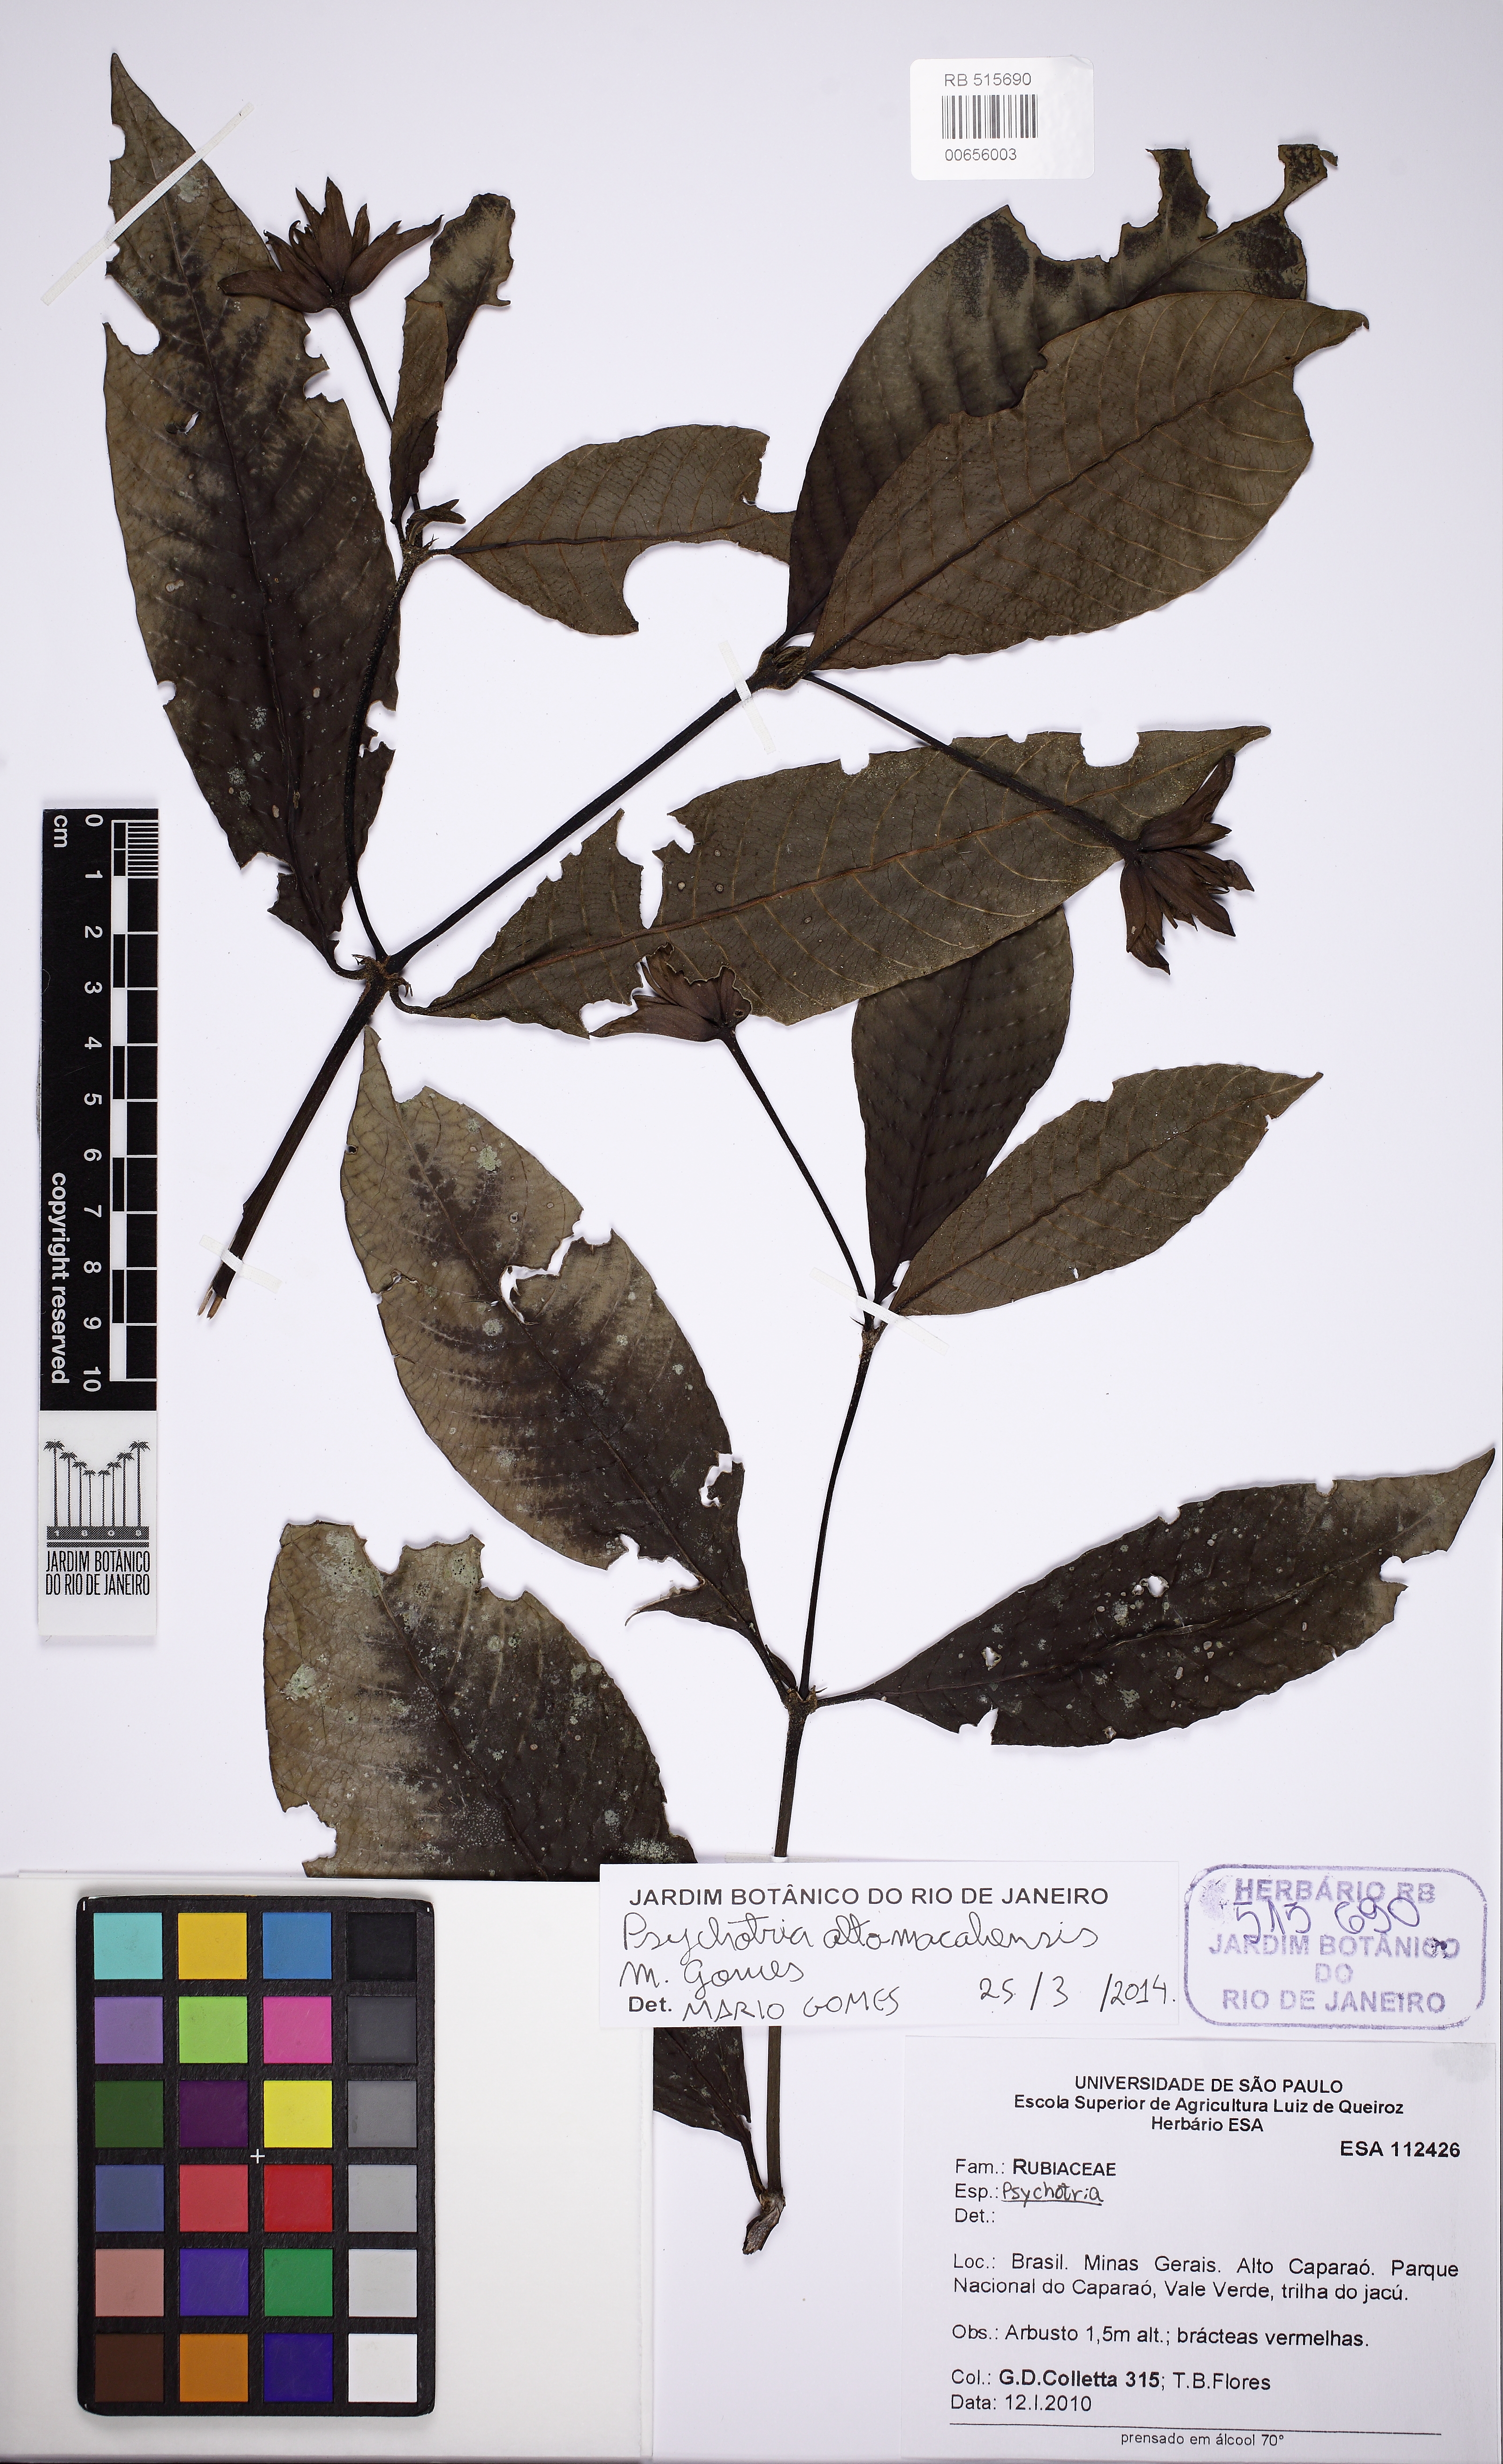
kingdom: Plantae
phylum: Tracheophyta
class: Magnoliopsida
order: Gentianales
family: Rubiaceae
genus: Psychotria
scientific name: Psychotria alto-macahensis
